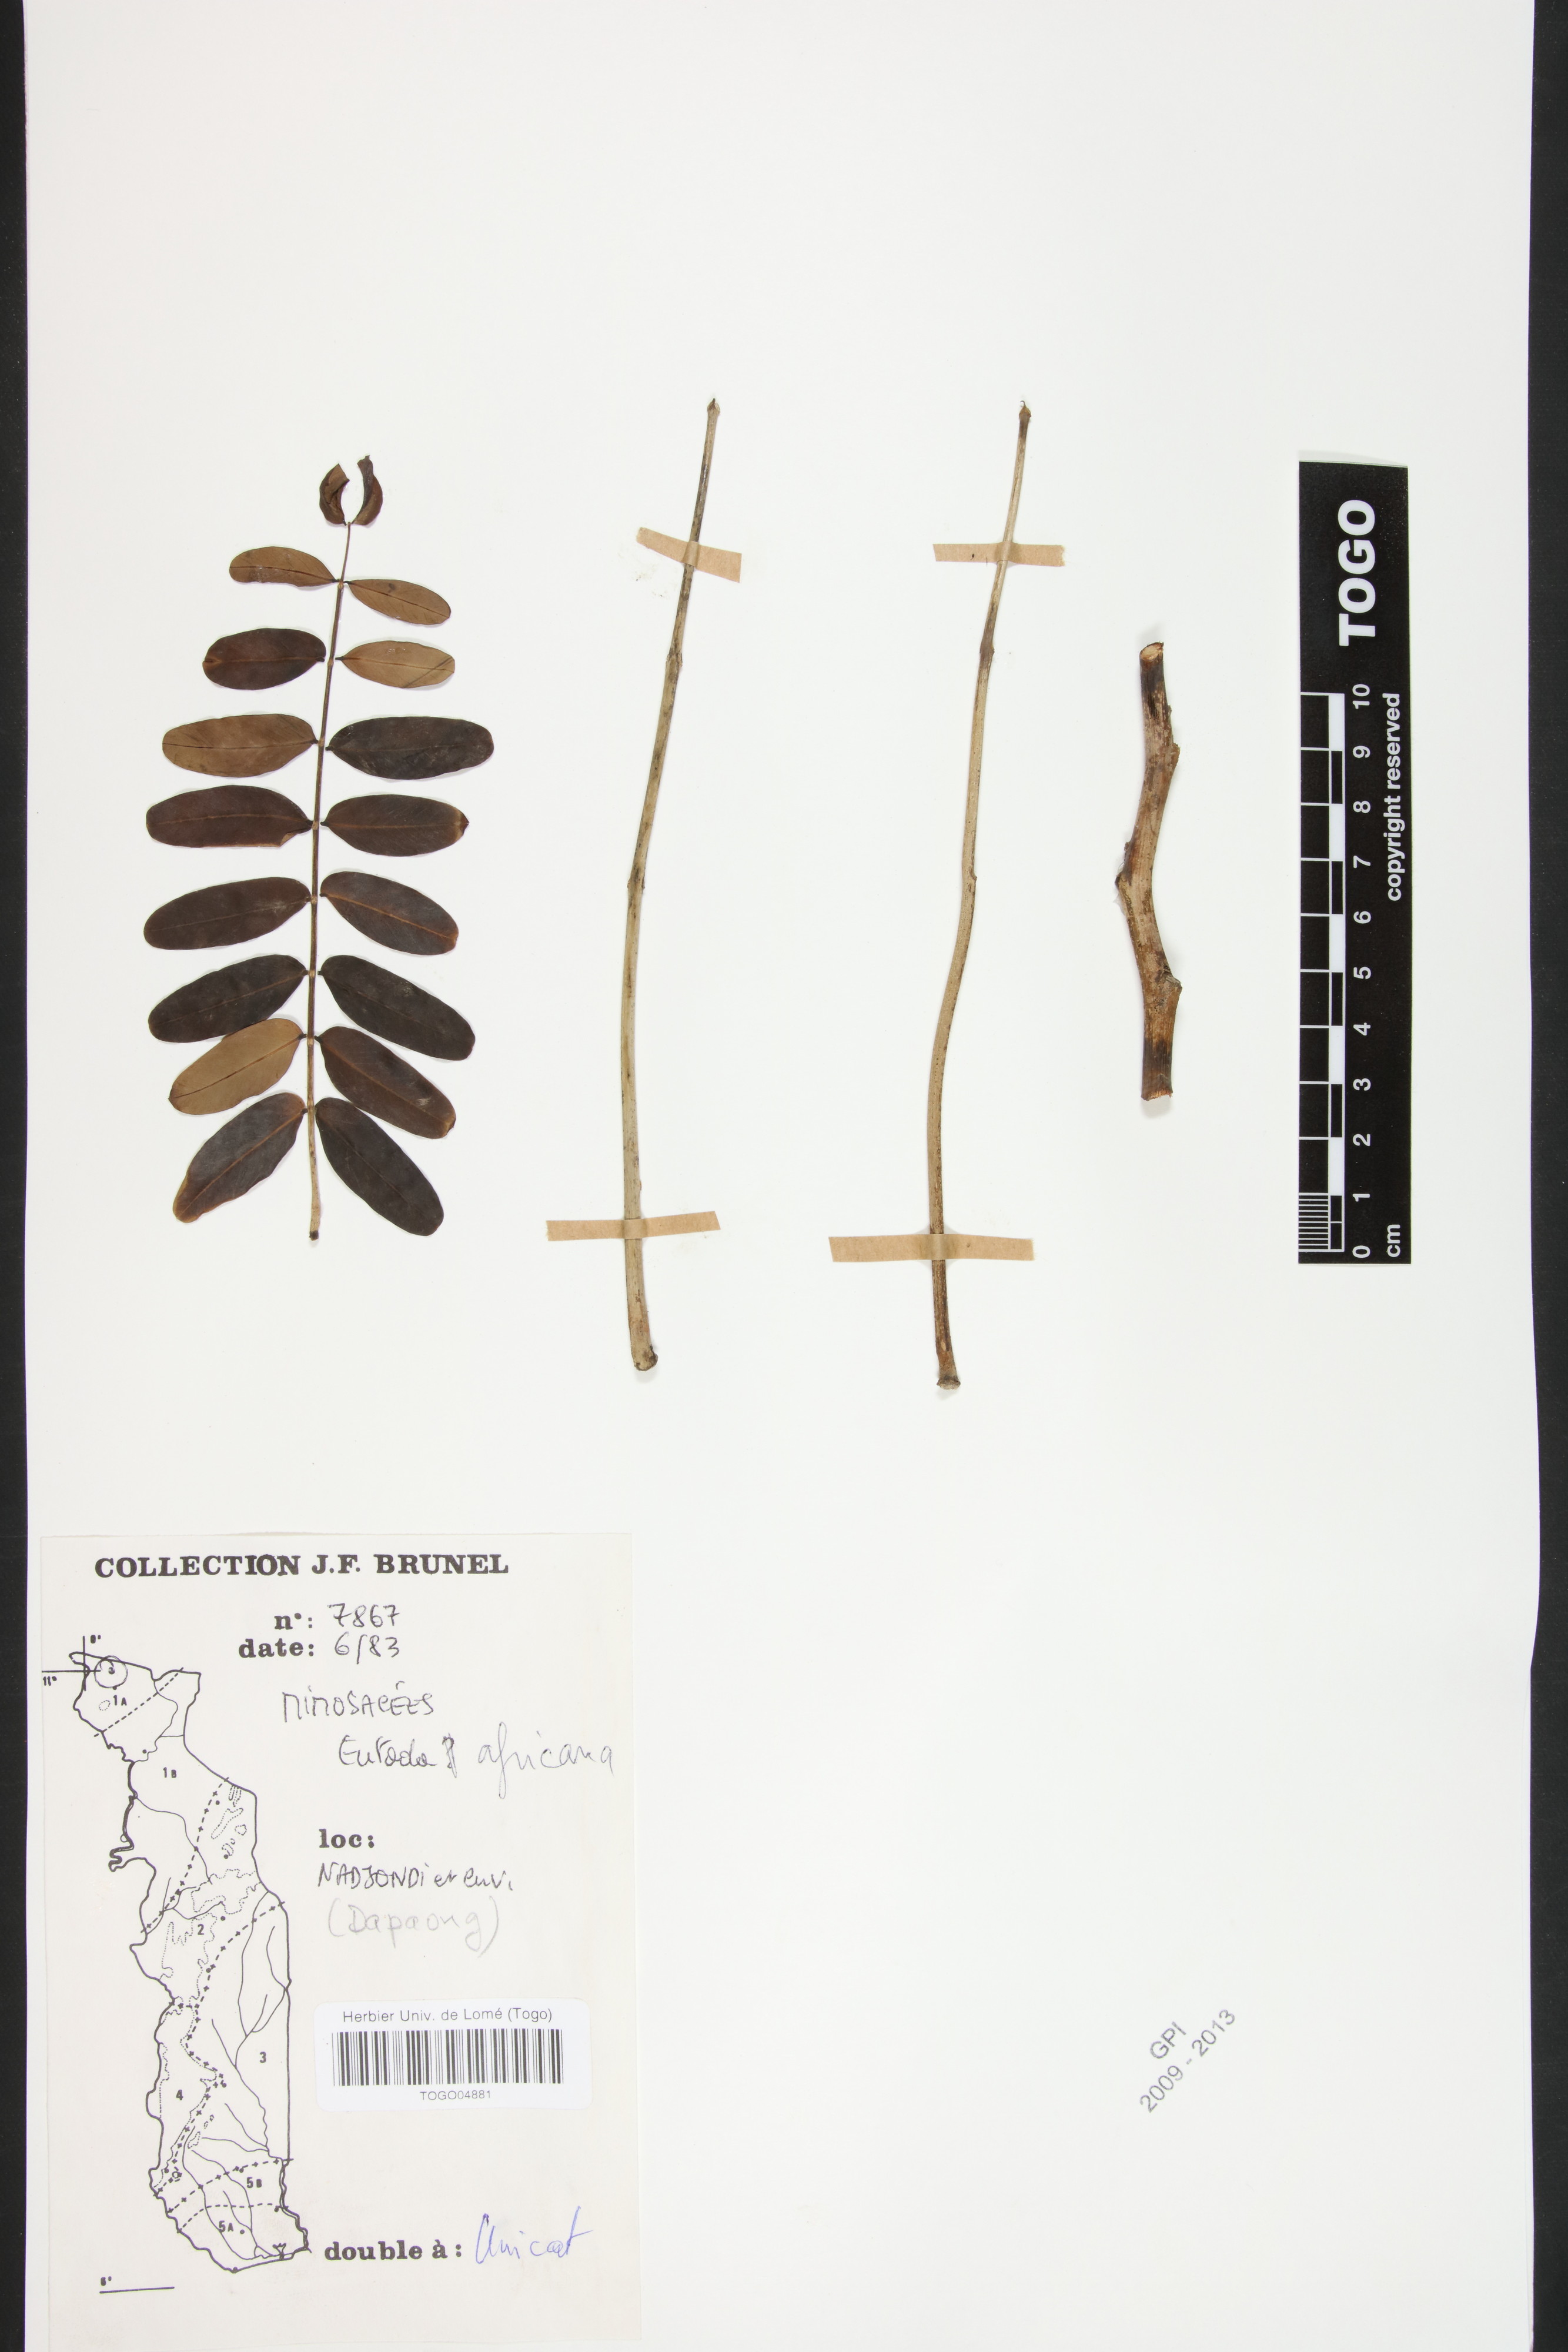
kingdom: Plantae
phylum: Tracheophyta
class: Magnoliopsida
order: Fabales
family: Fabaceae
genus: Entada
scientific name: Entada africana
